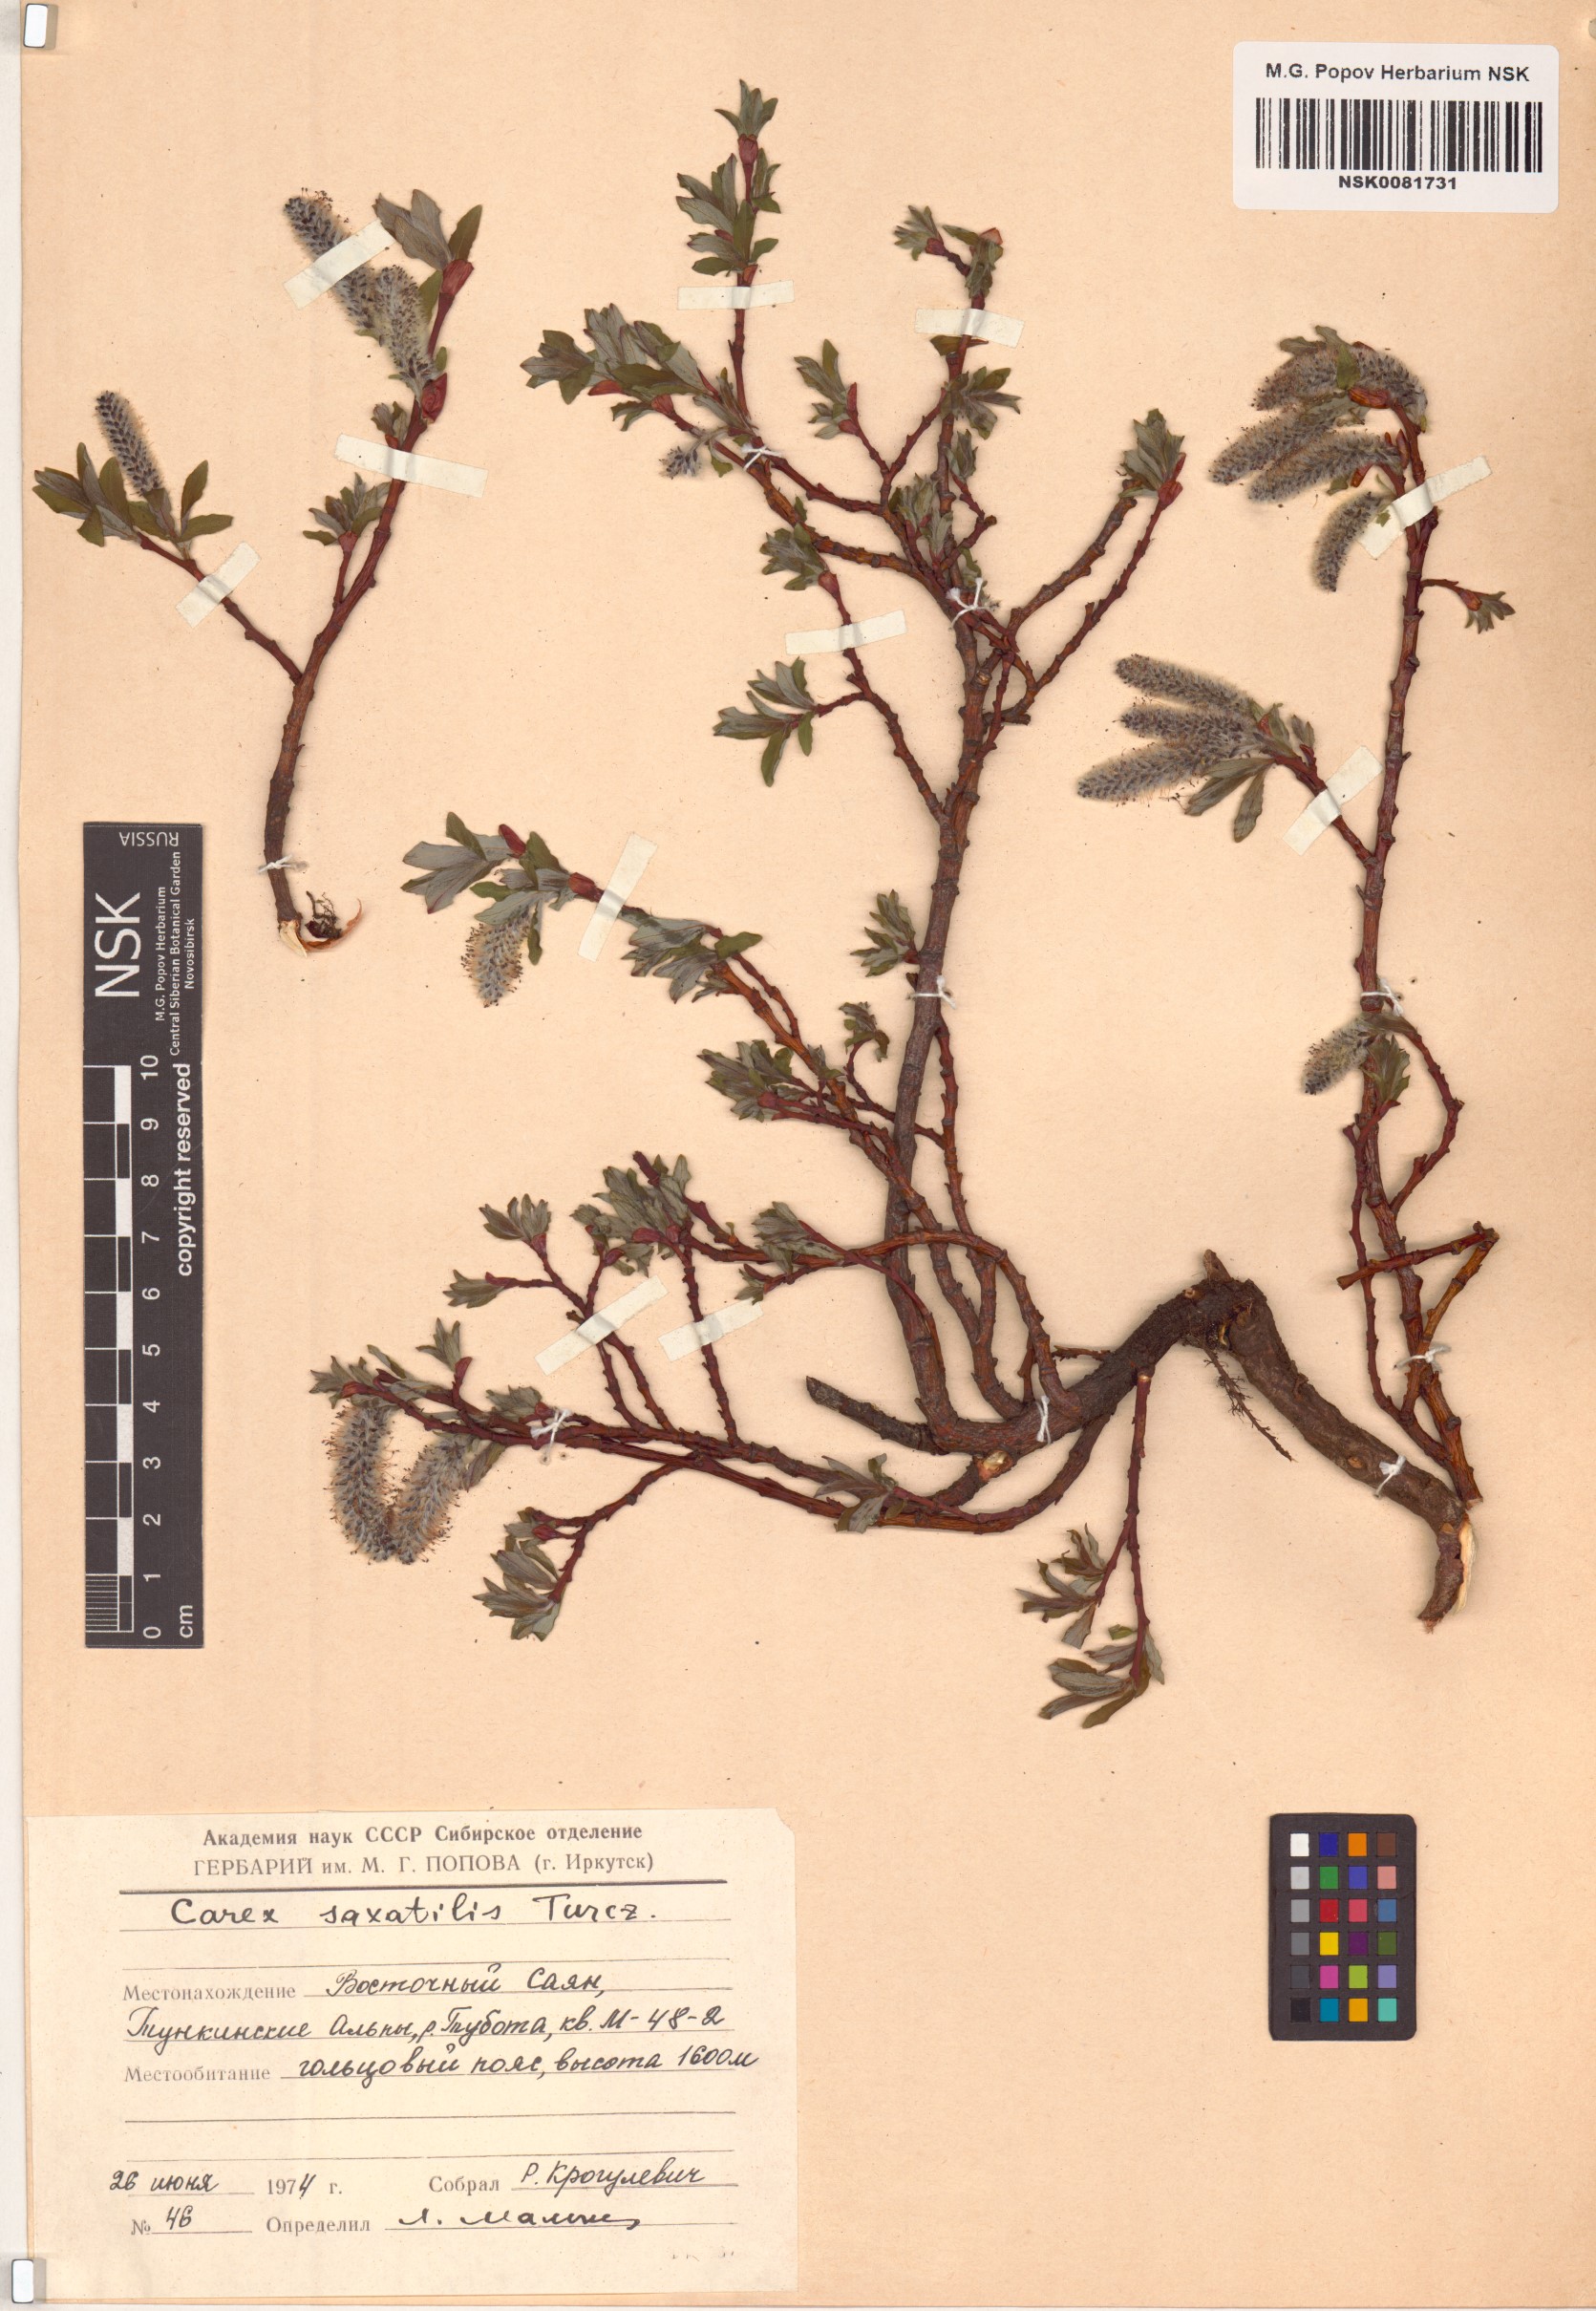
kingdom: Plantae
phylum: Tracheophyta
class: Magnoliopsida
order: Malpighiales
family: Salicaceae
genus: Salix
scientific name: Salix saxatilis
